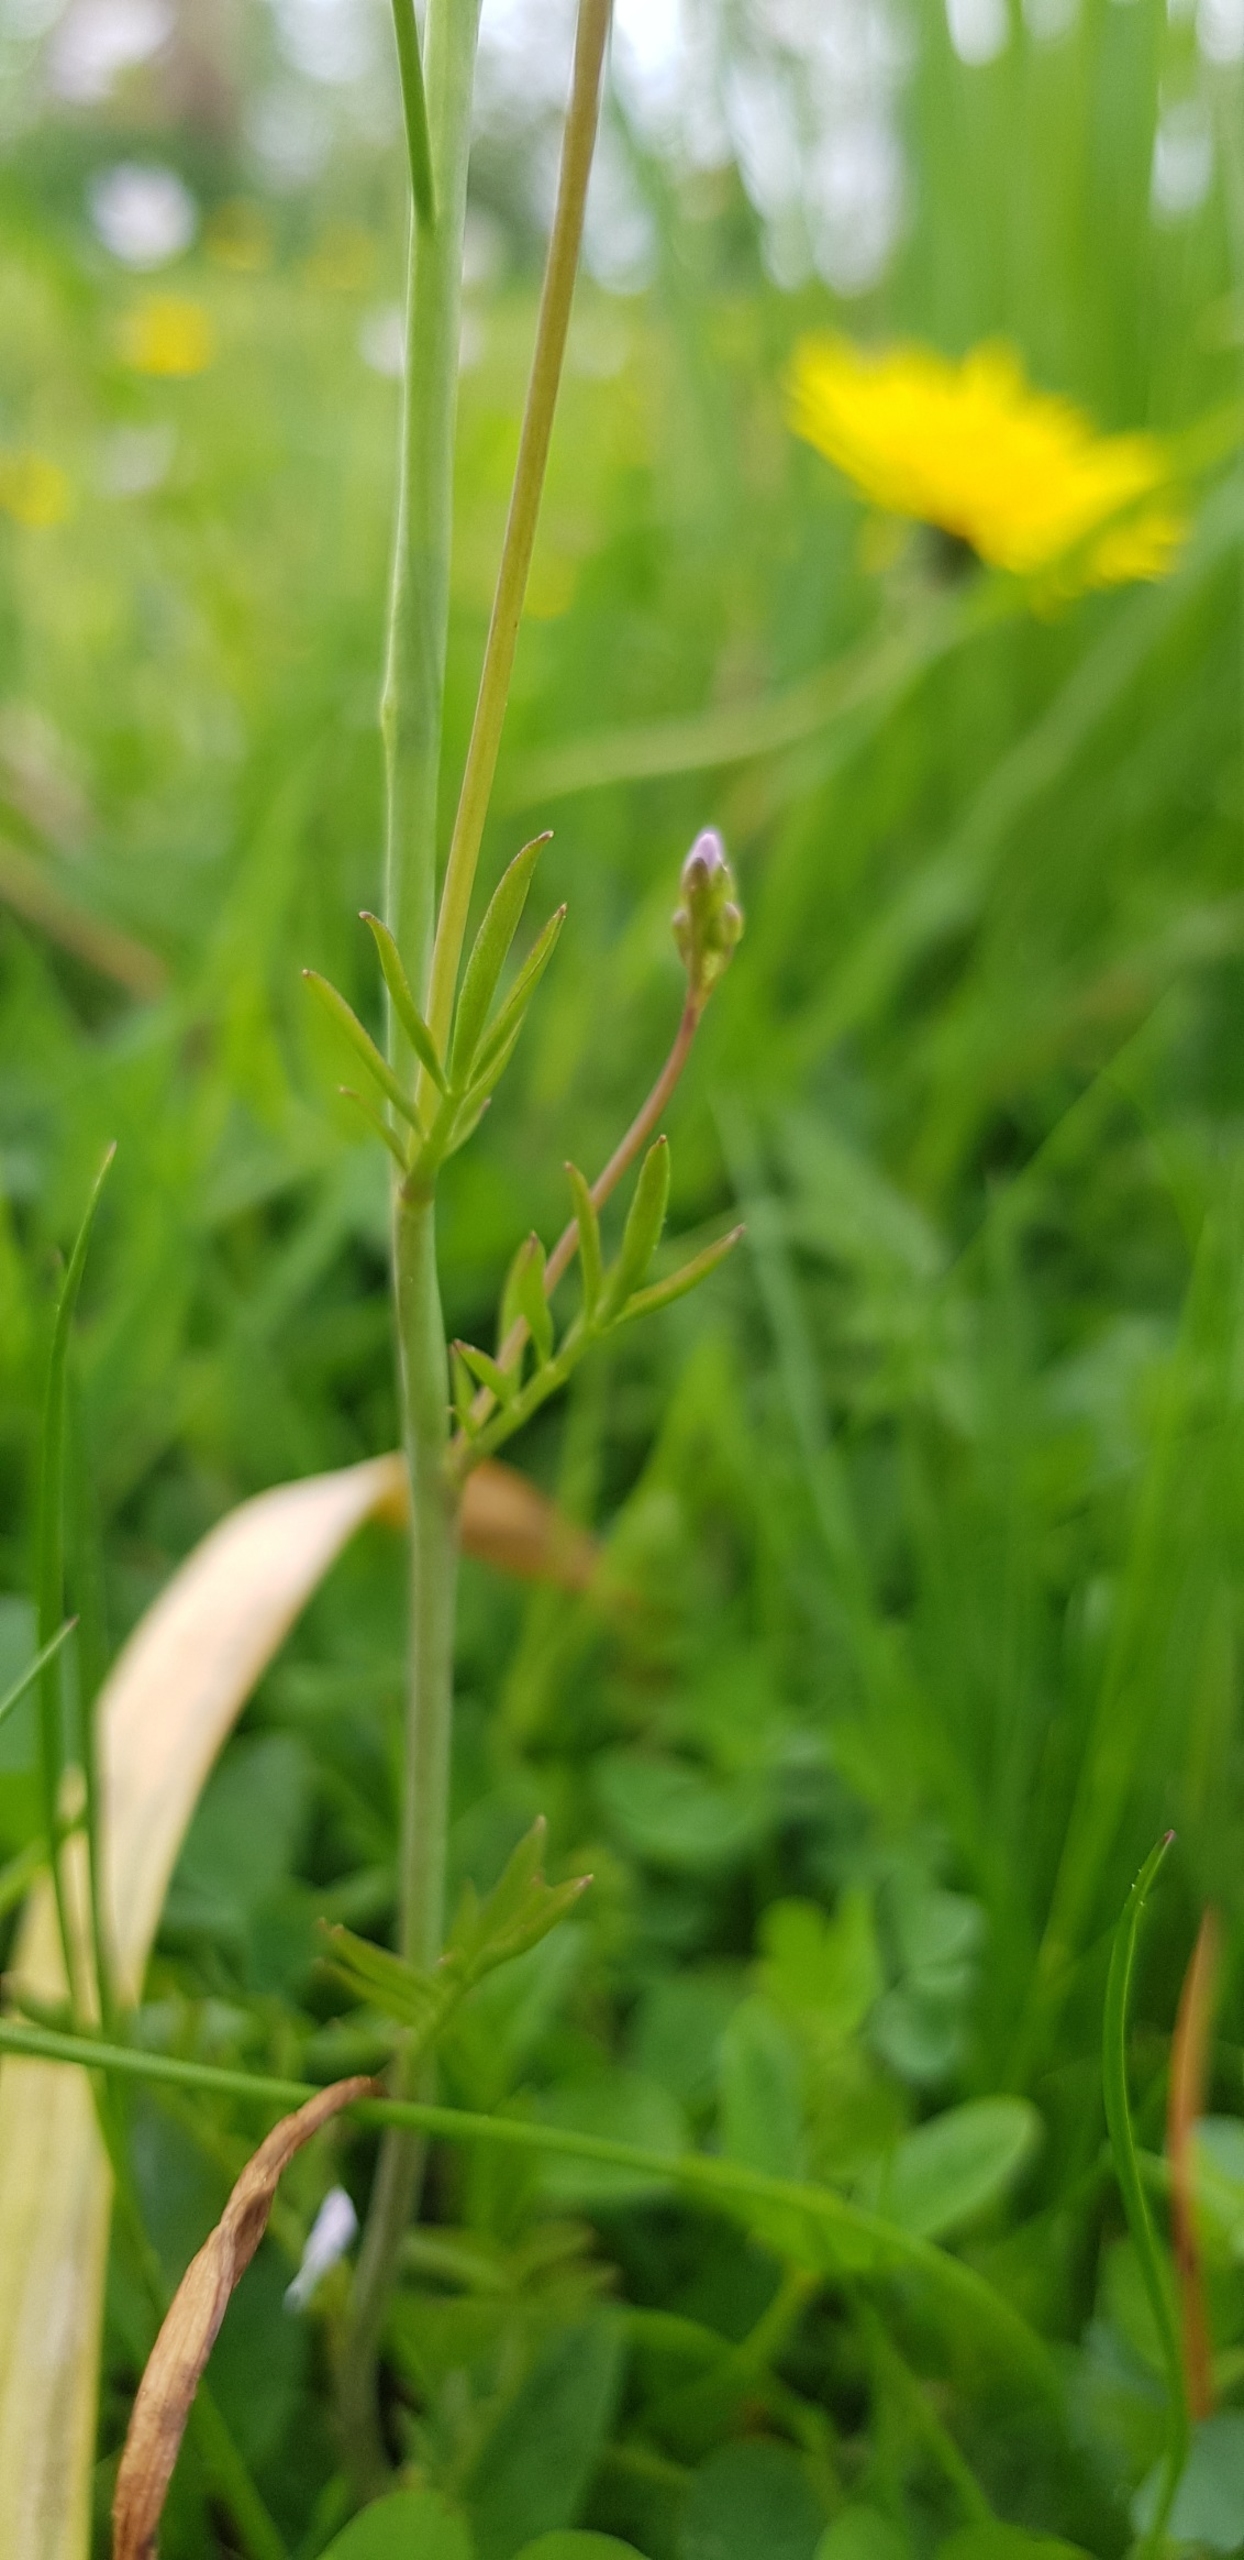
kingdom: Plantae
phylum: Tracheophyta
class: Magnoliopsida
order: Brassicales
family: Brassicaceae
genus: Cardamine
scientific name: Cardamine pratensis
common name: Engkarse
